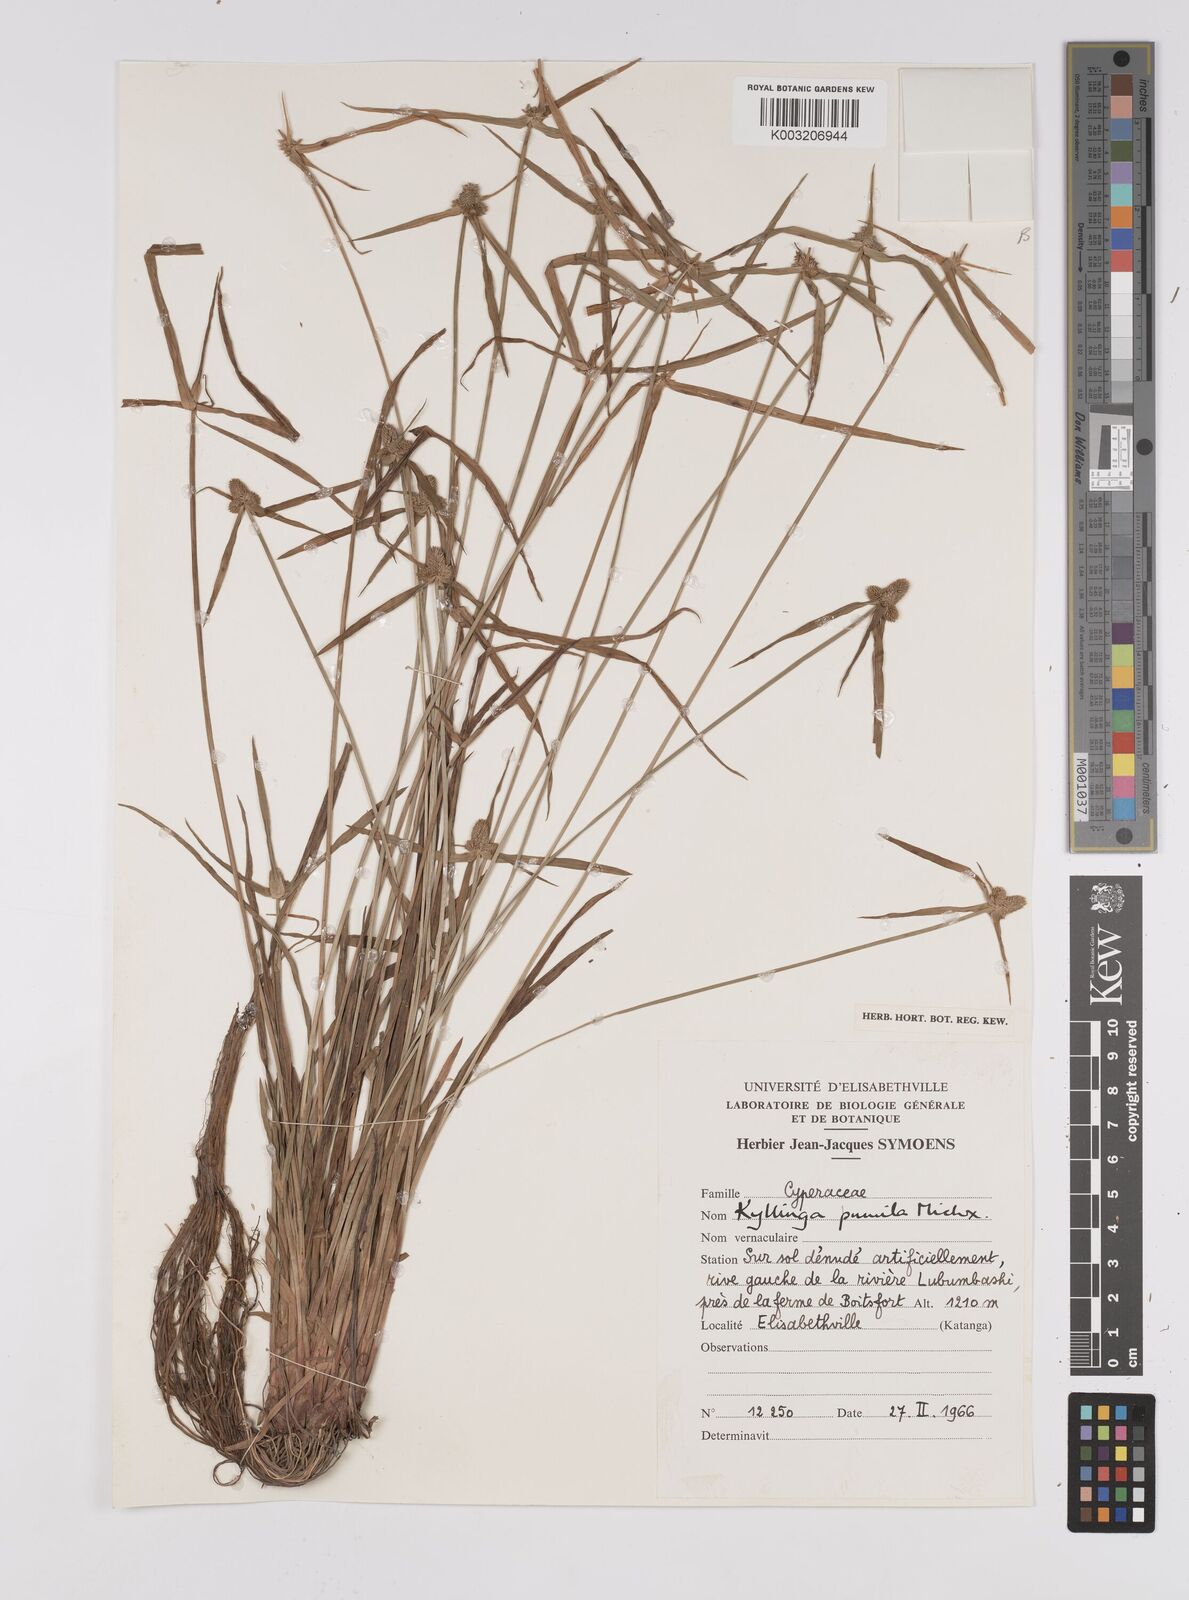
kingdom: Plantae
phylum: Tracheophyta
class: Liliopsida
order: Poales
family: Cyperaceae
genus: Cyperus
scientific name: Cyperus hortensis
